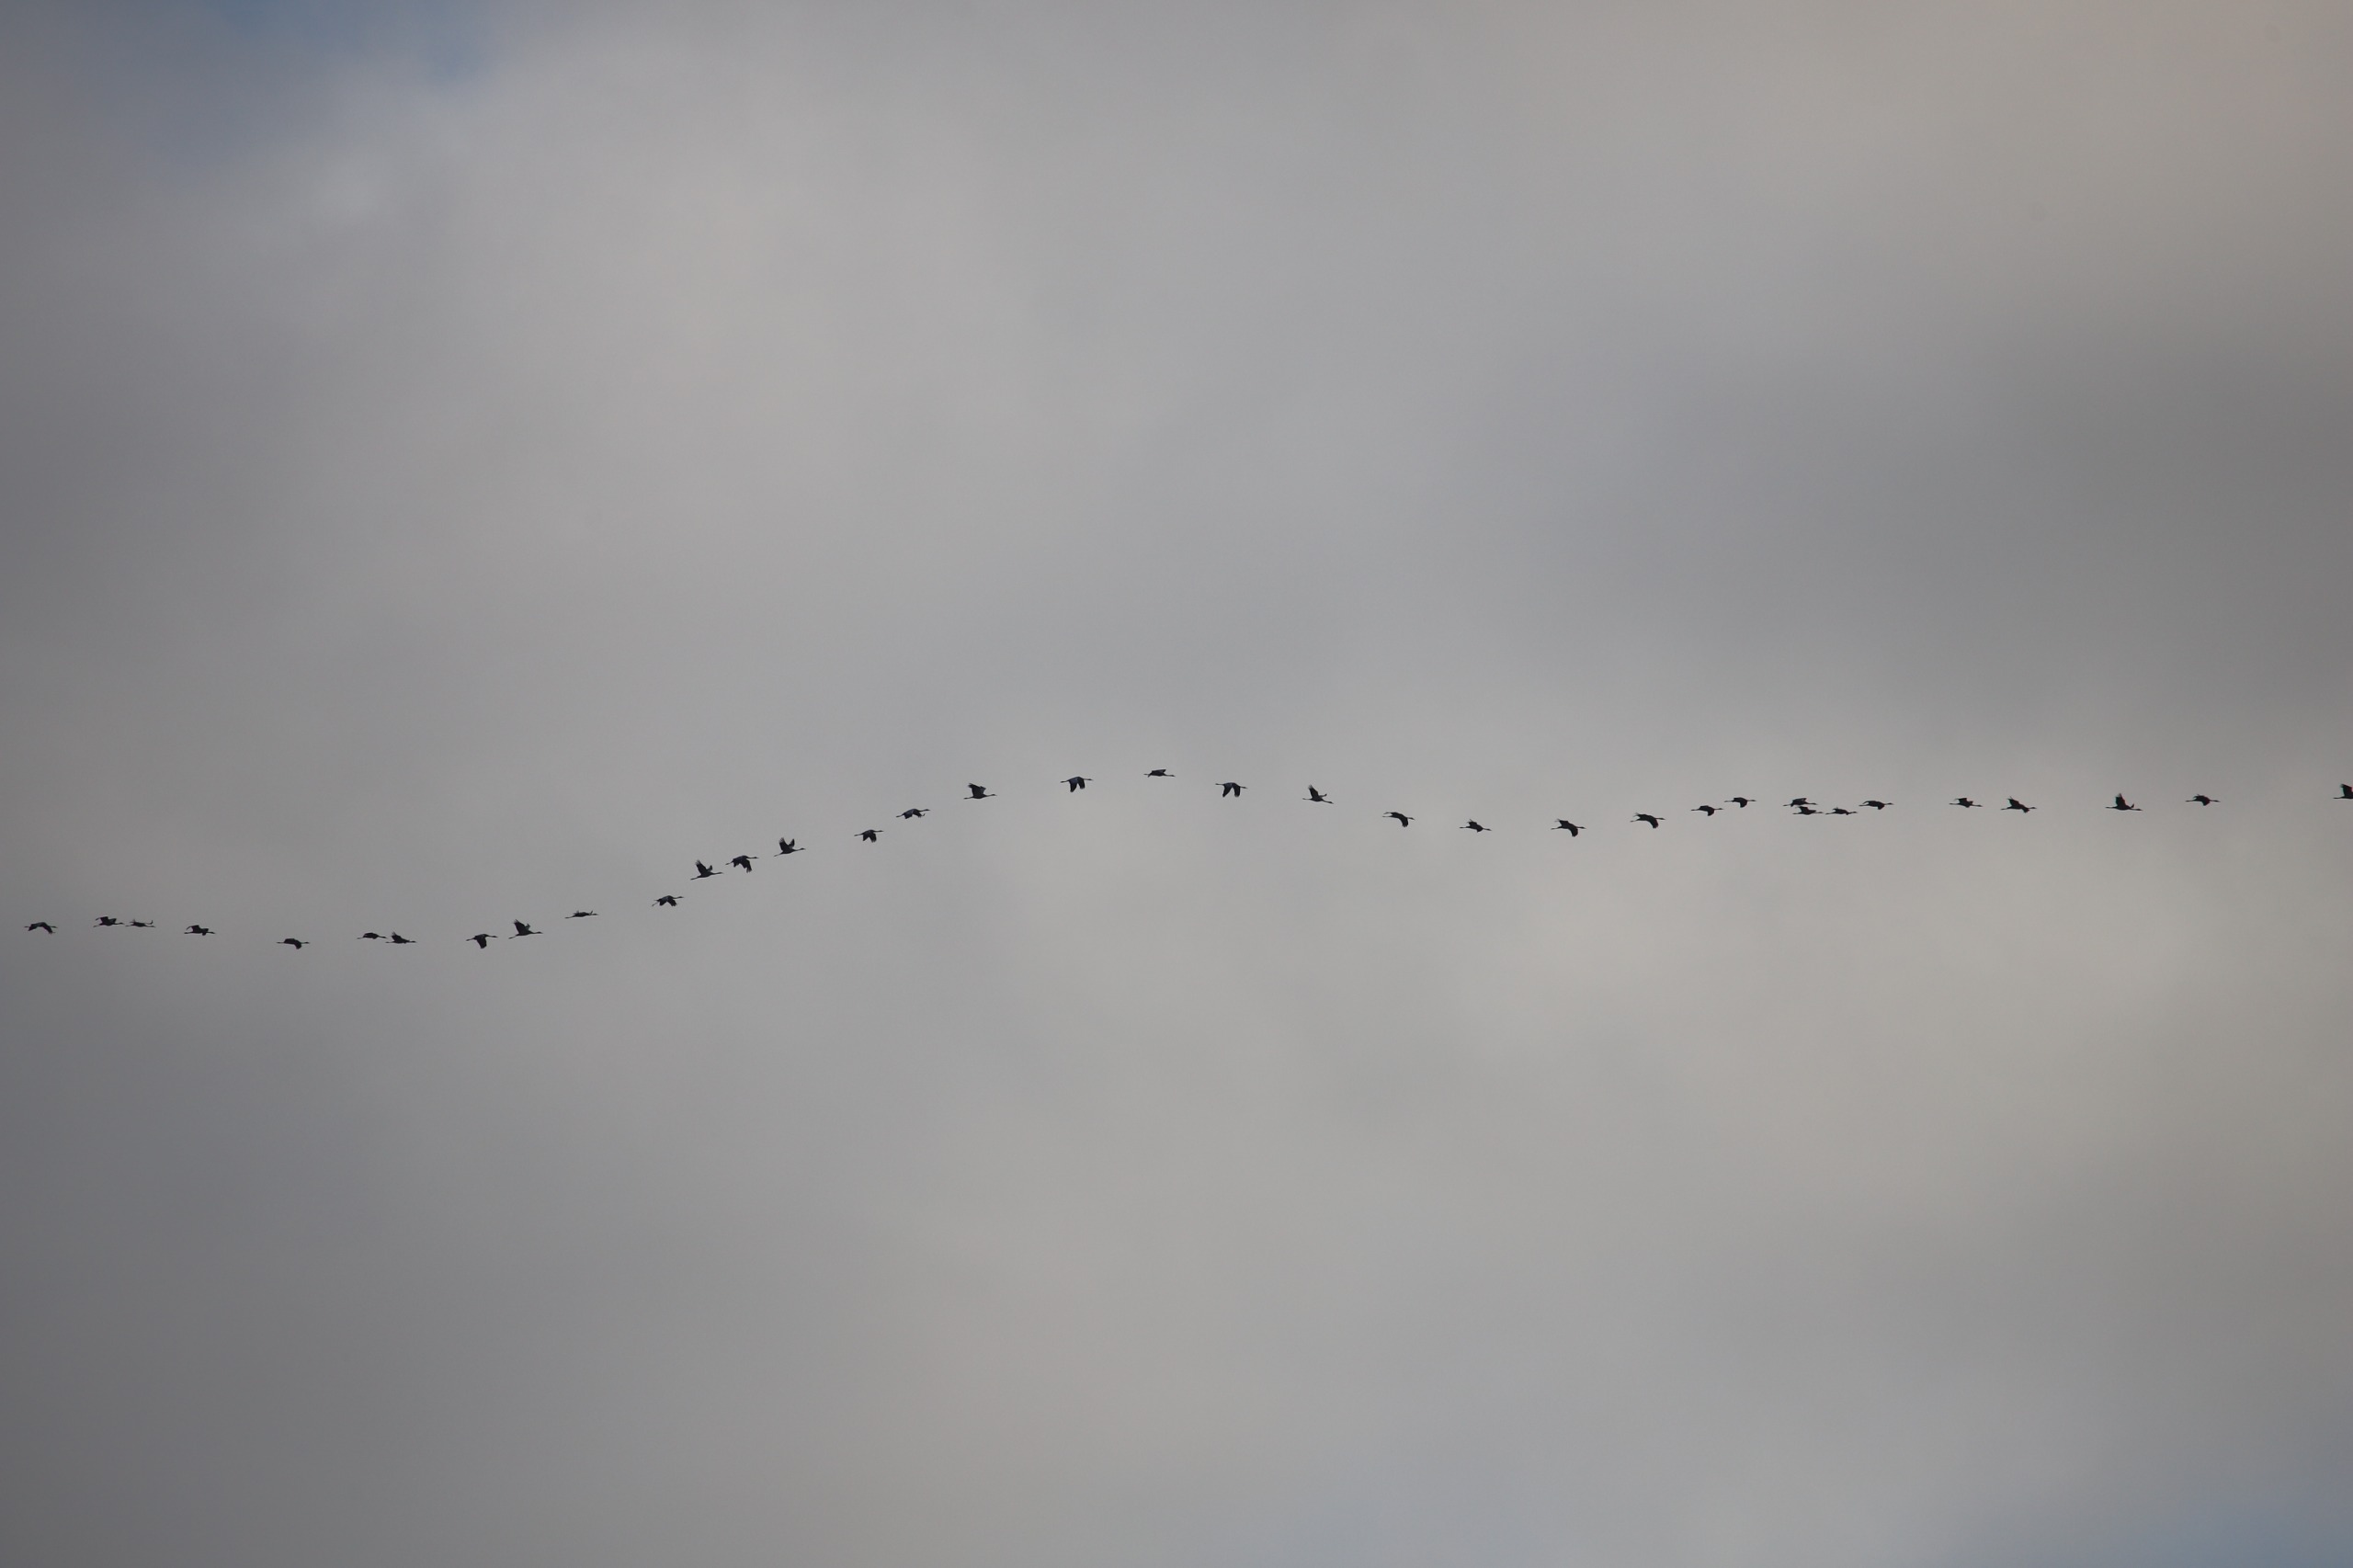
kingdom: Animalia
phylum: Chordata
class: Aves
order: Gruiformes
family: Gruidae
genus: Grus
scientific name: Grus grus
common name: Trane
